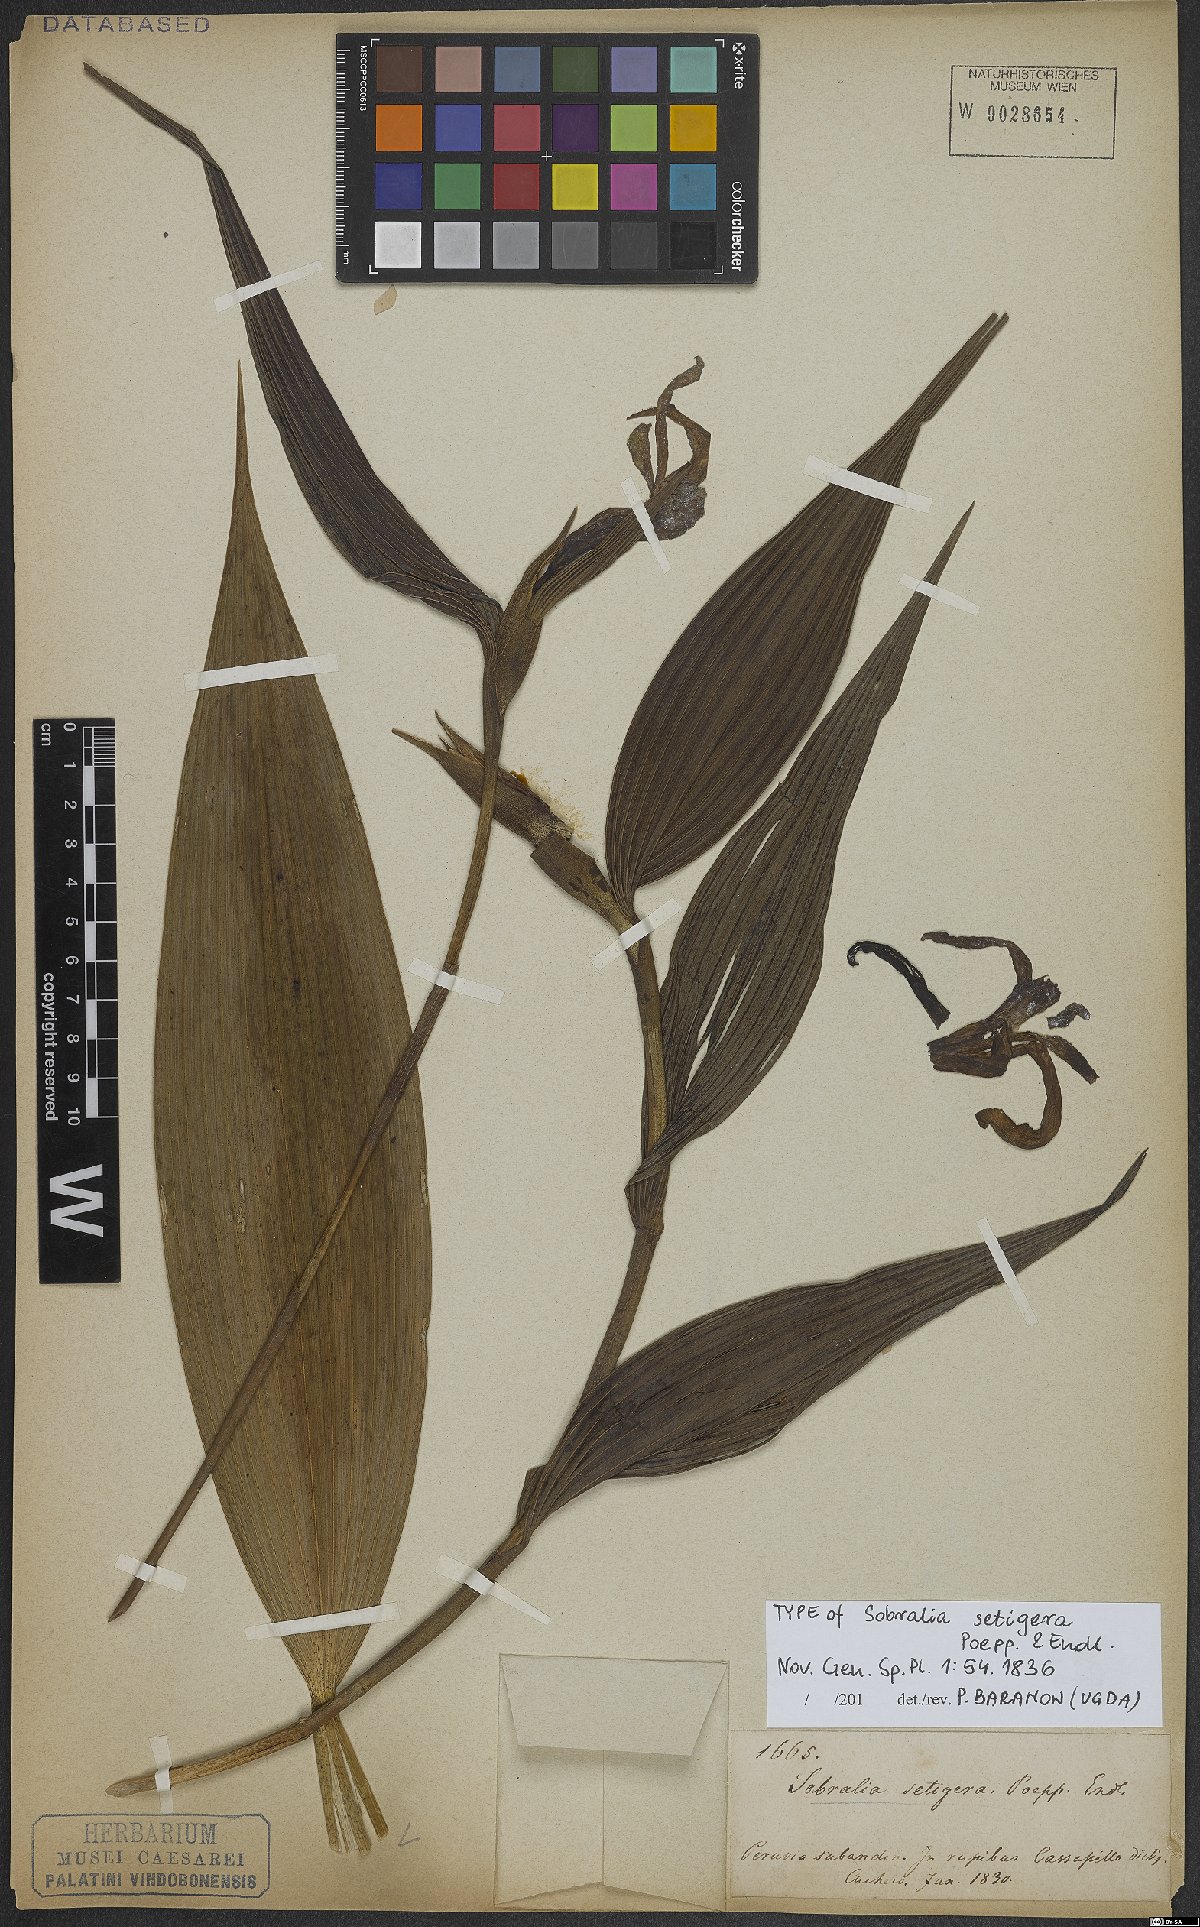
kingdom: Plantae
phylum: Tracheophyta
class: Liliopsida
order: Asparagales
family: Orchidaceae
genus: Sobralia
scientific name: Sobralia setigera
